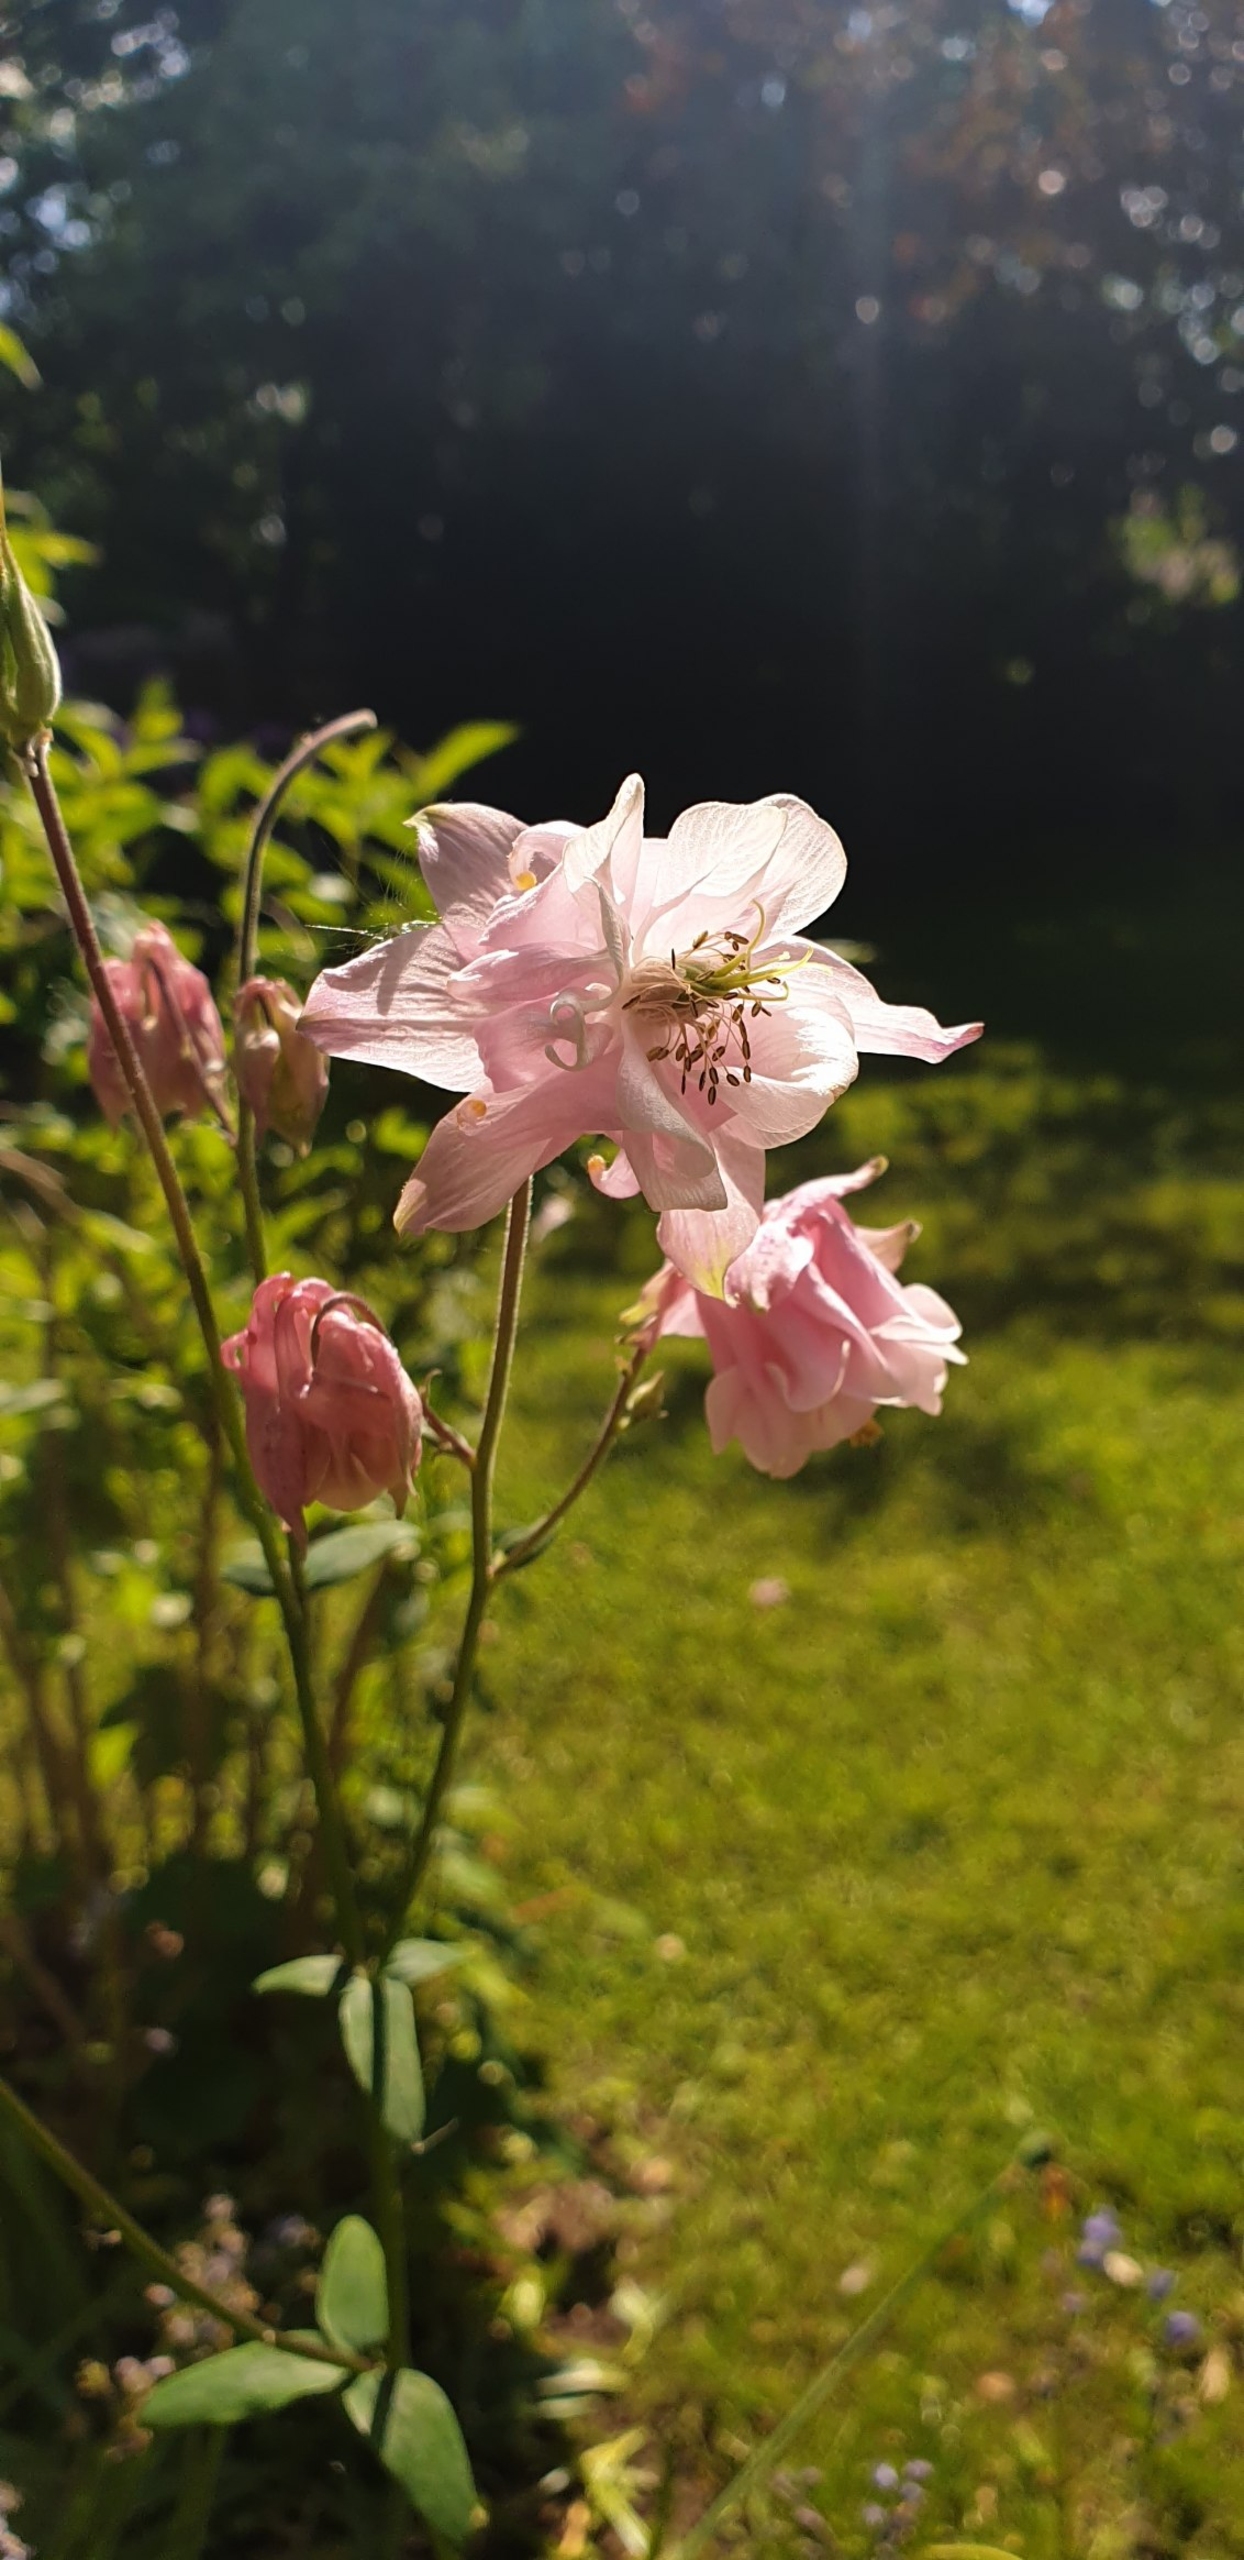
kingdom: Plantae
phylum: Tracheophyta
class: Magnoliopsida
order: Ranunculales
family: Ranunculaceae
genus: Aquilegia
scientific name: Aquilegia vulgaris
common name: Akeleje
